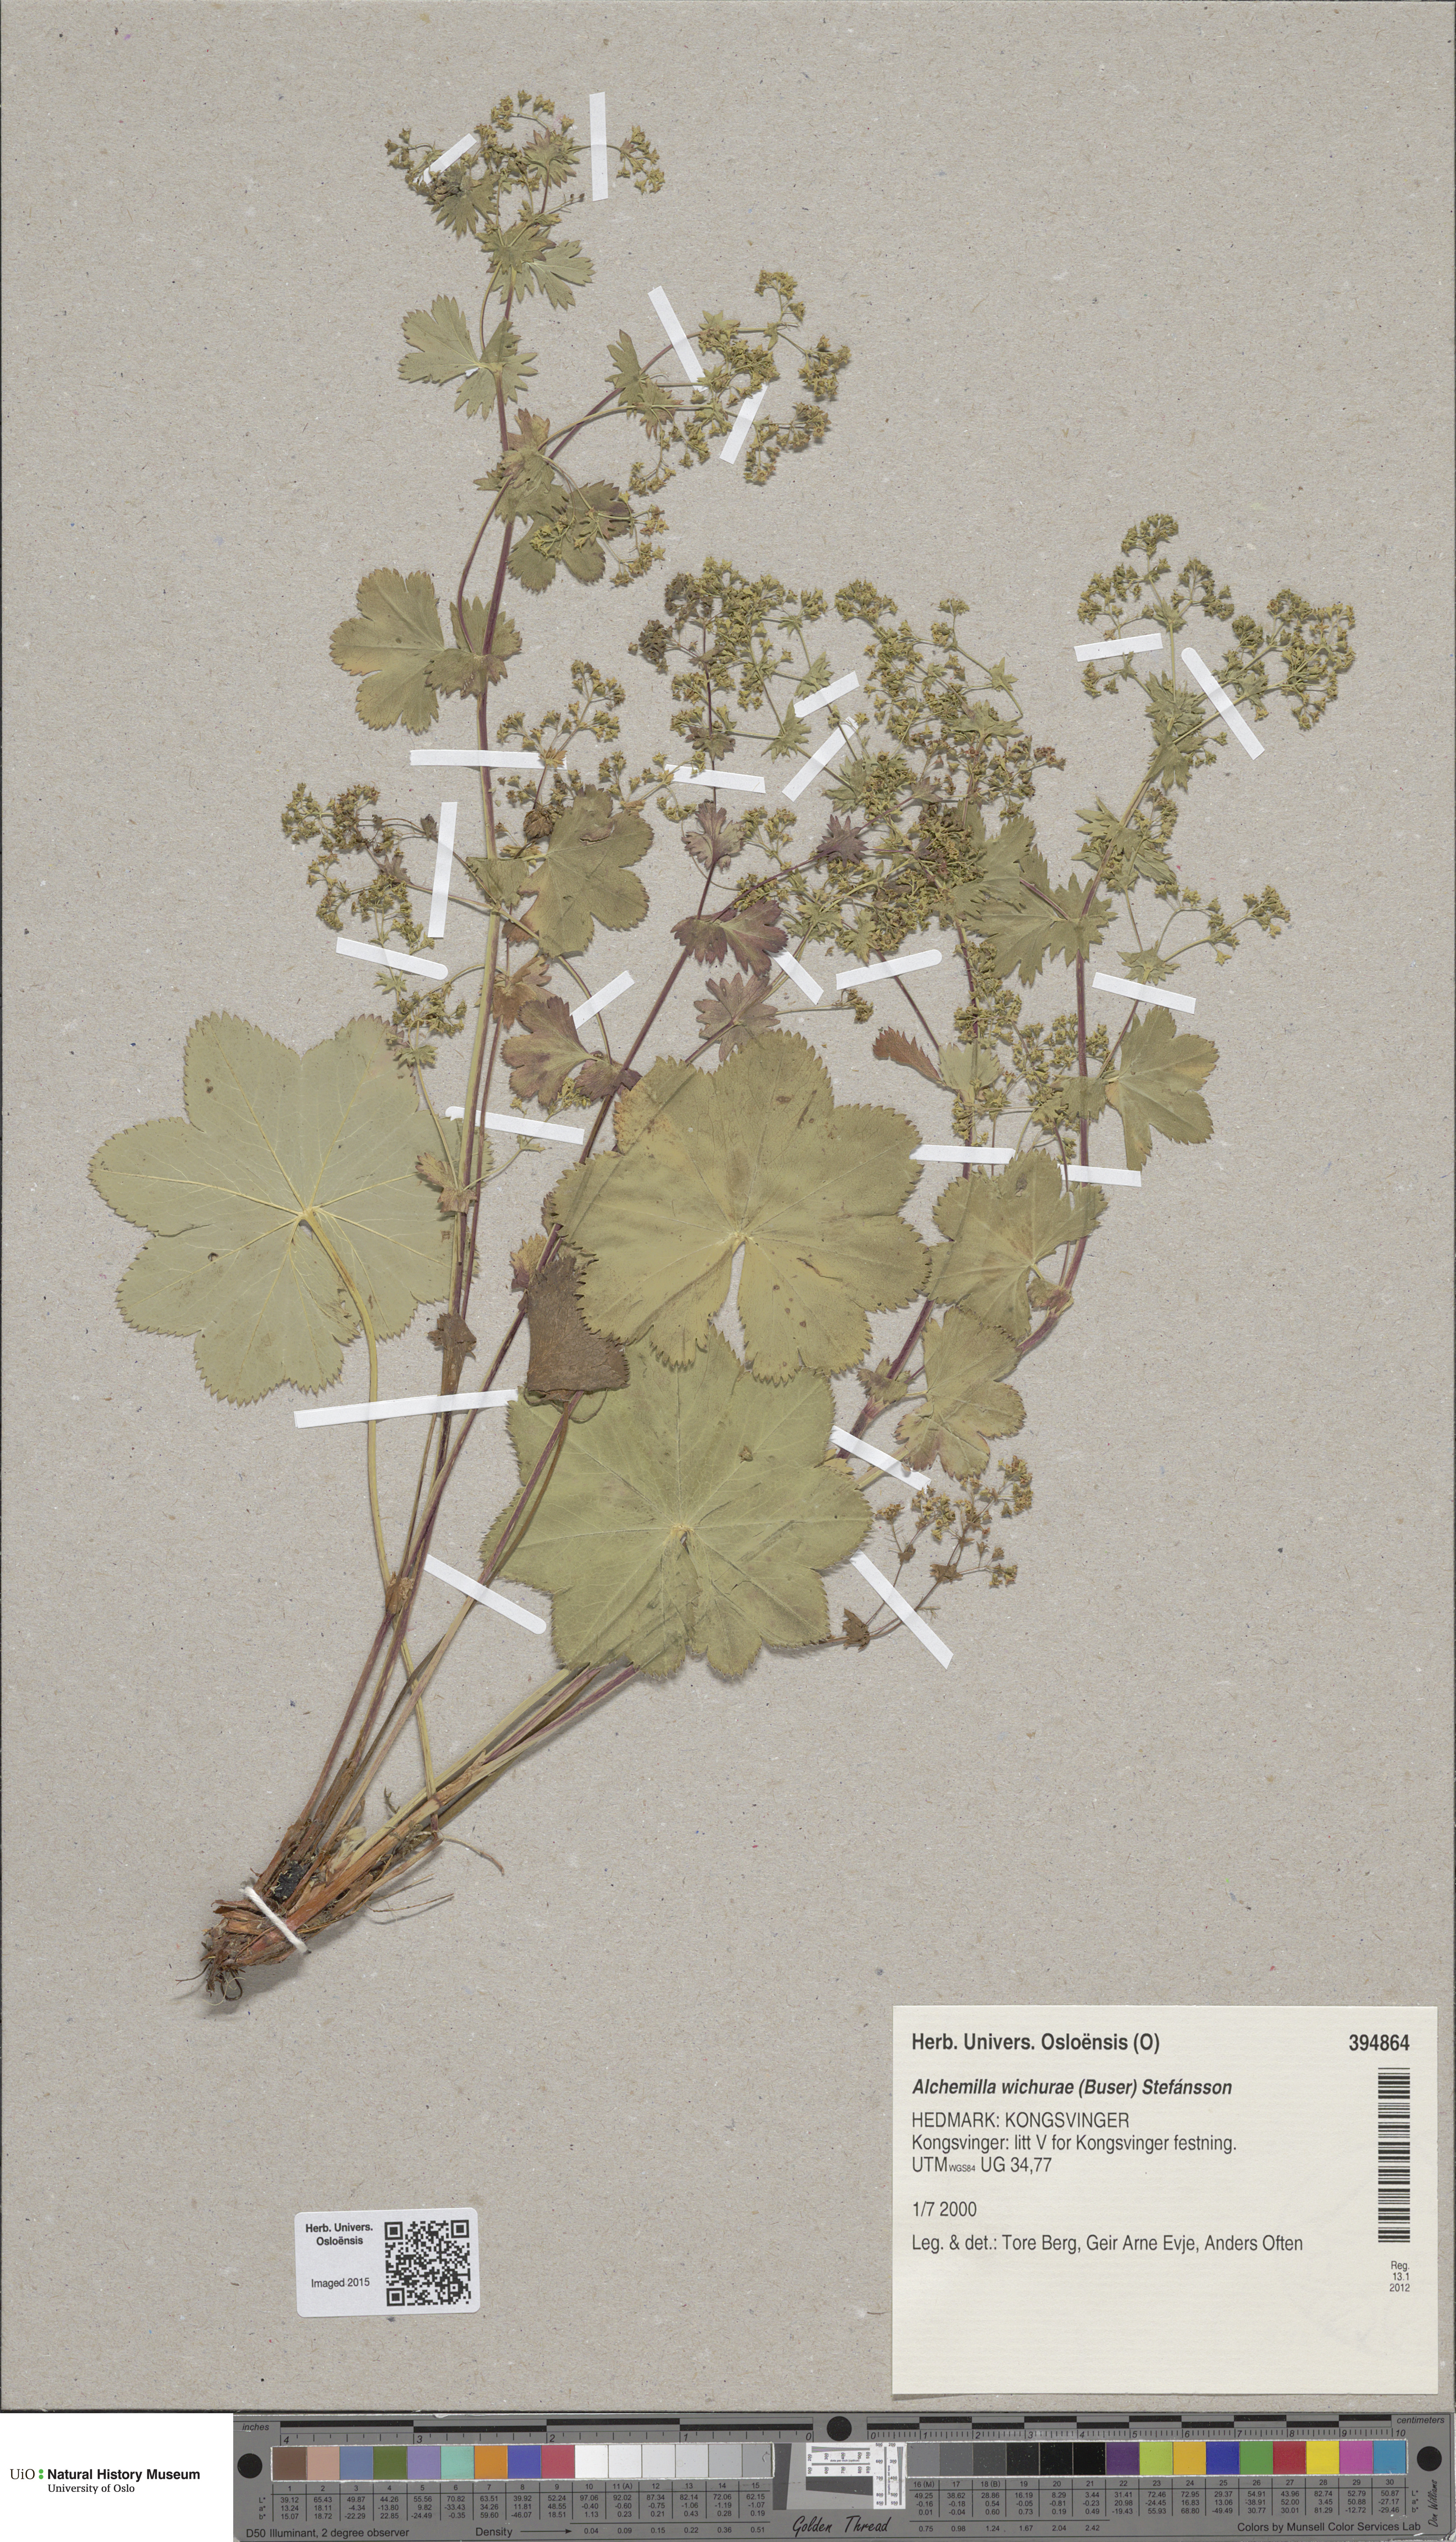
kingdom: Plantae
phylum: Tracheophyta
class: Magnoliopsida
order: Rosales
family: Rosaceae
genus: Alchemilla
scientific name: Alchemilla wichurae
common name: Rock lady's mantle
